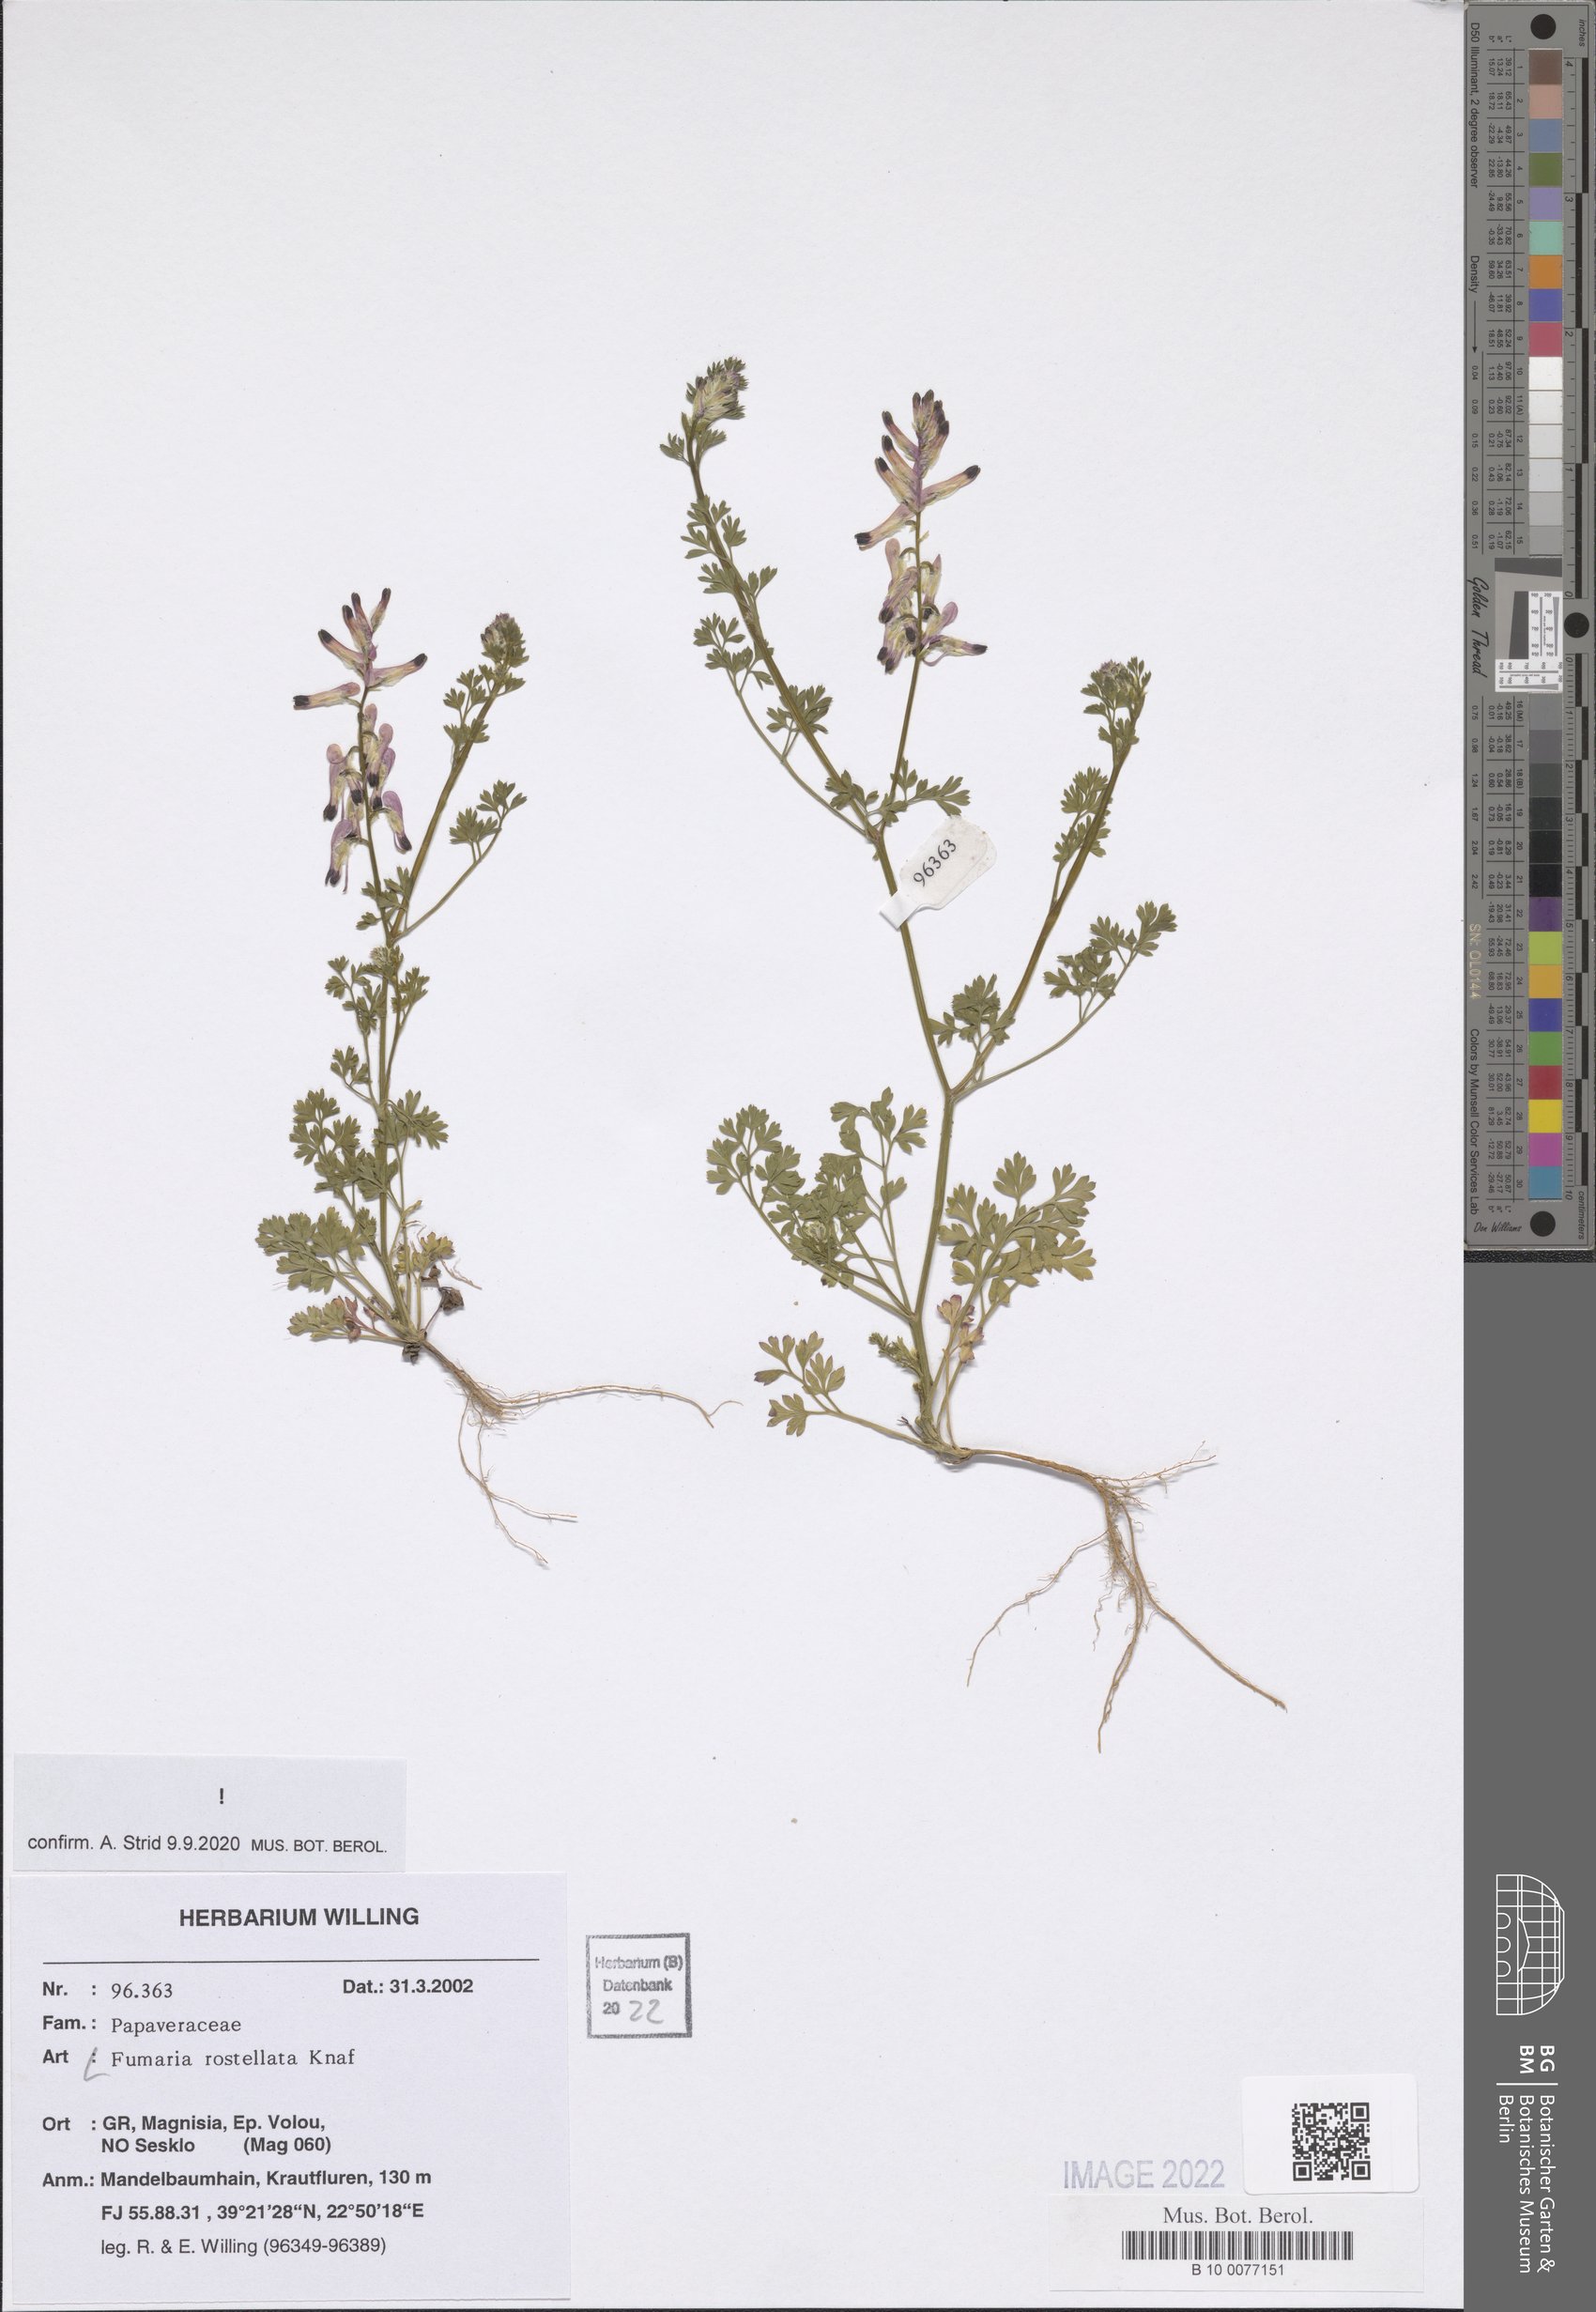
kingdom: Plantae
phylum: Tracheophyta
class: Magnoliopsida
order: Ranunculales
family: Papaveraceae
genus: Fumaria
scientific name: Fumaria rostellata
